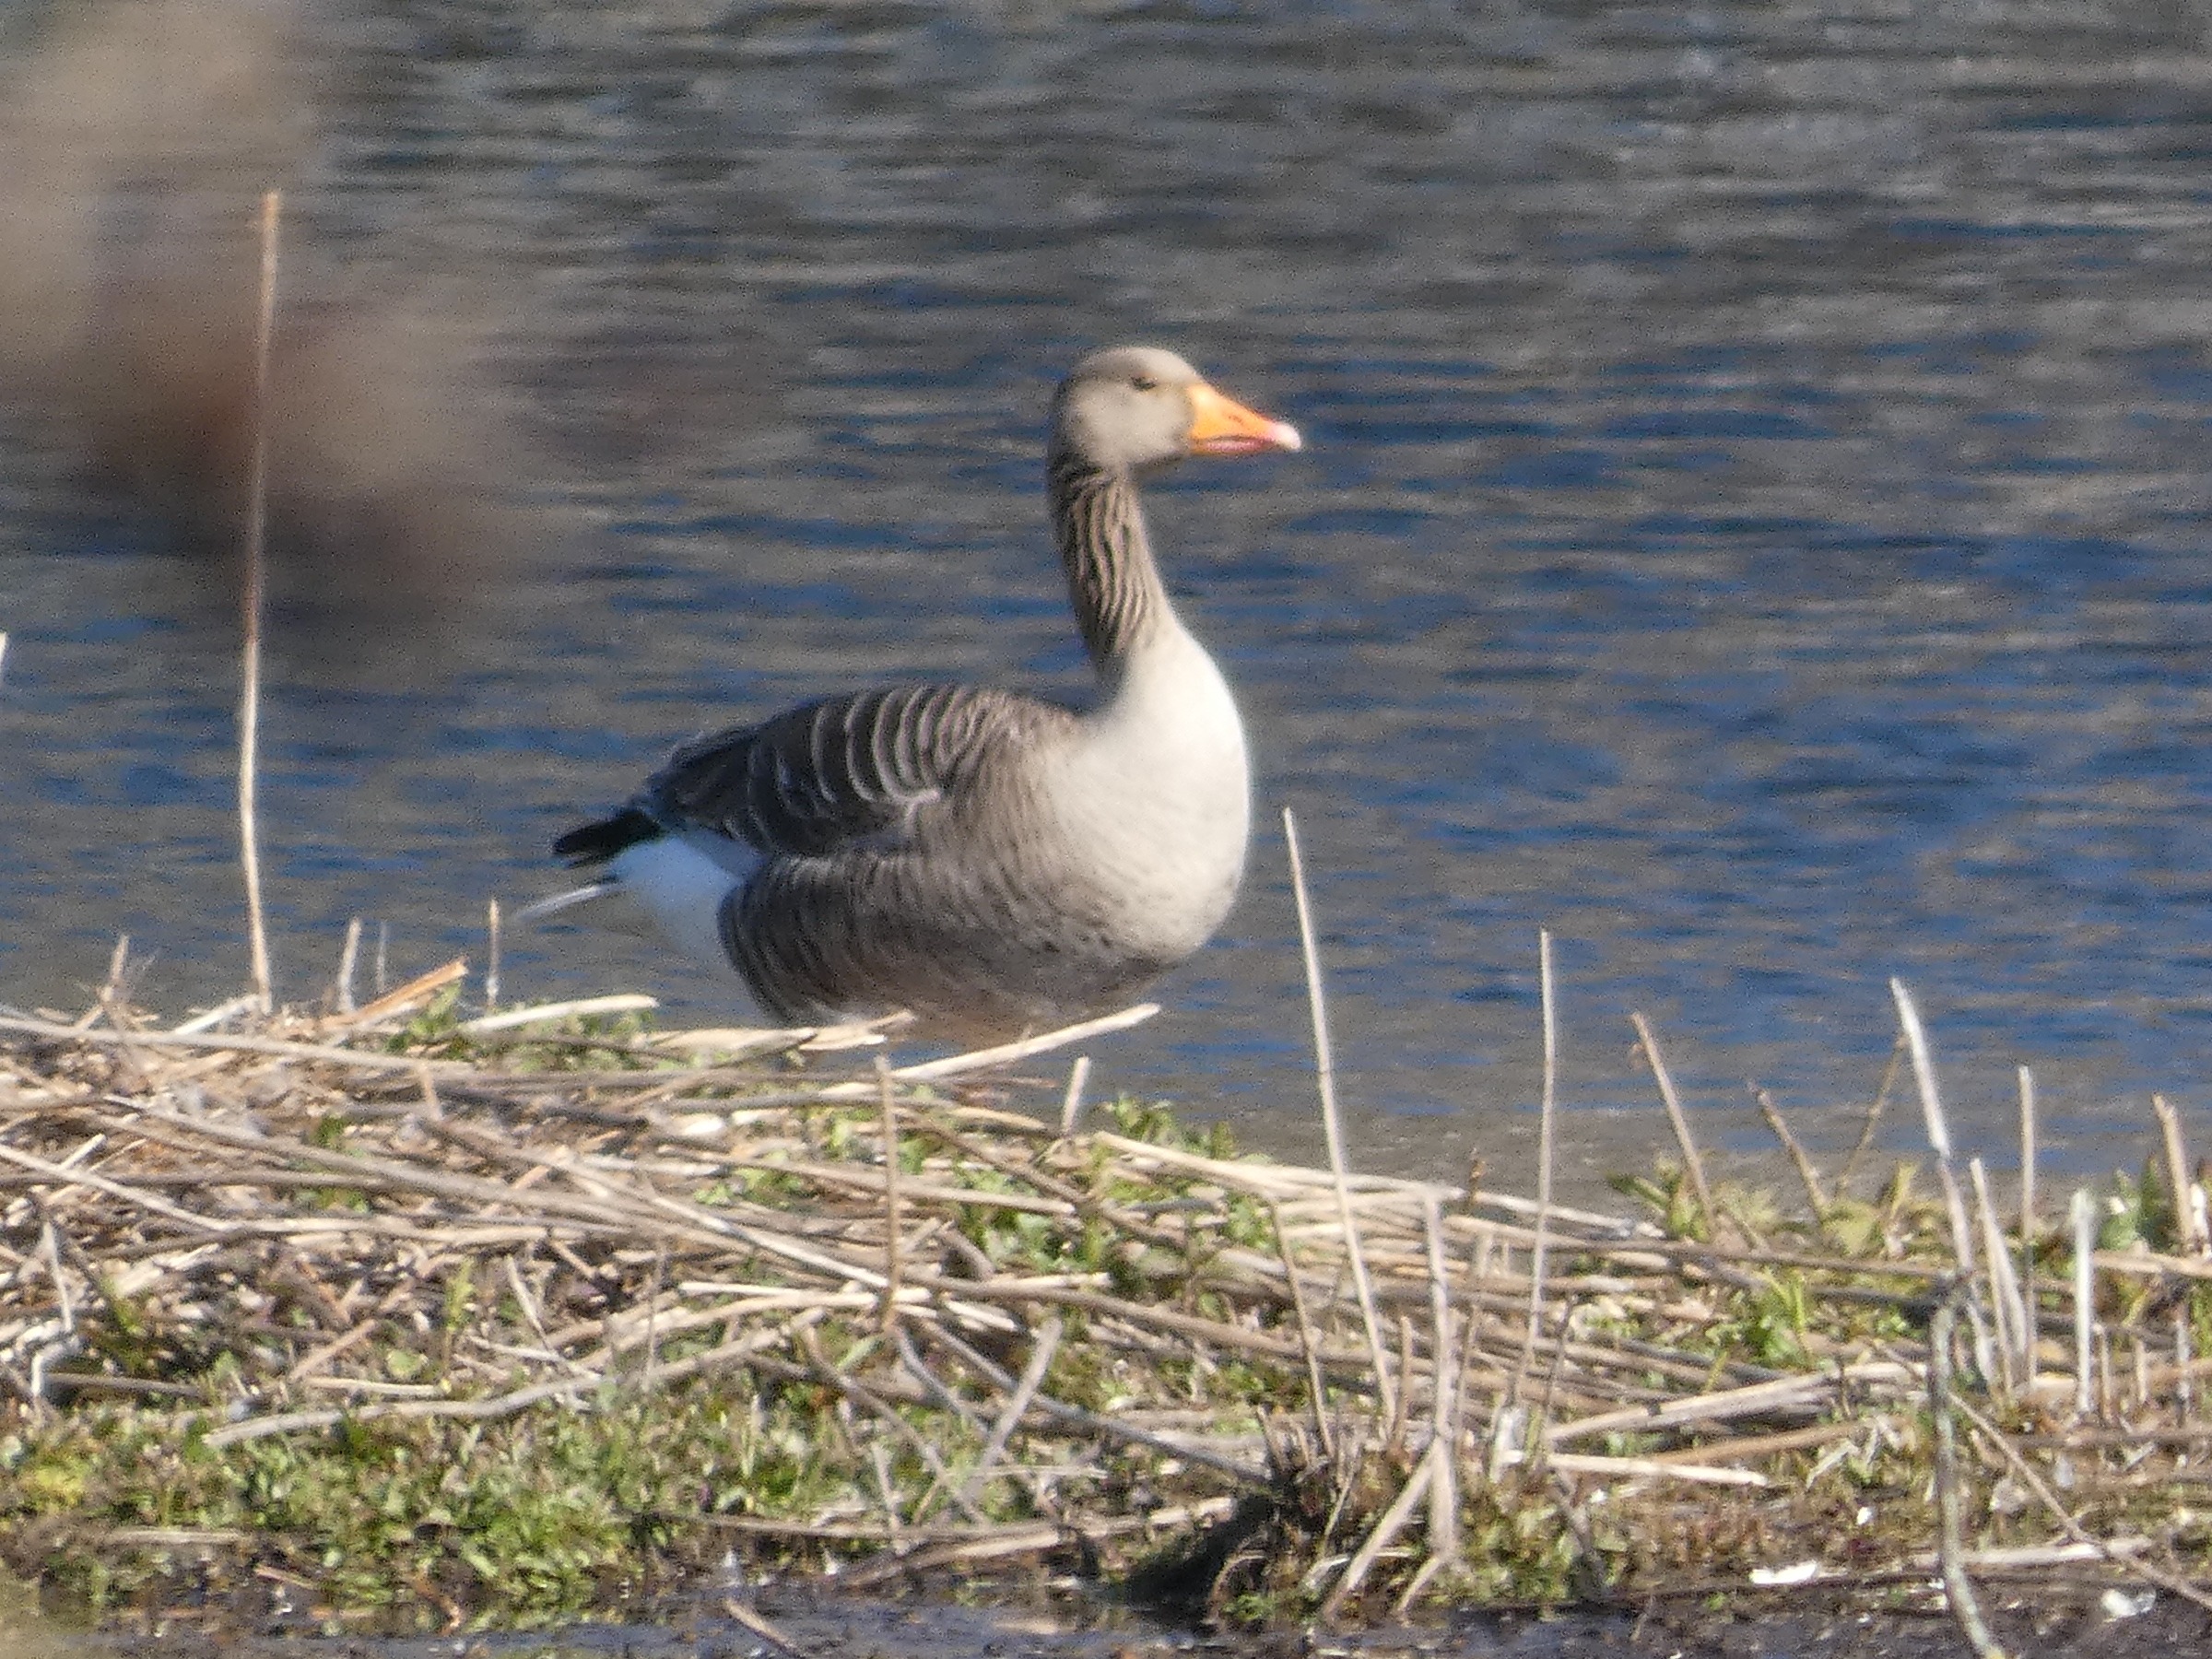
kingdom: Animalia
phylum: Chordata
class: Aves
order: Anseriformes
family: Anatidae
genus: Anser
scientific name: Anser anser
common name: Grågås
